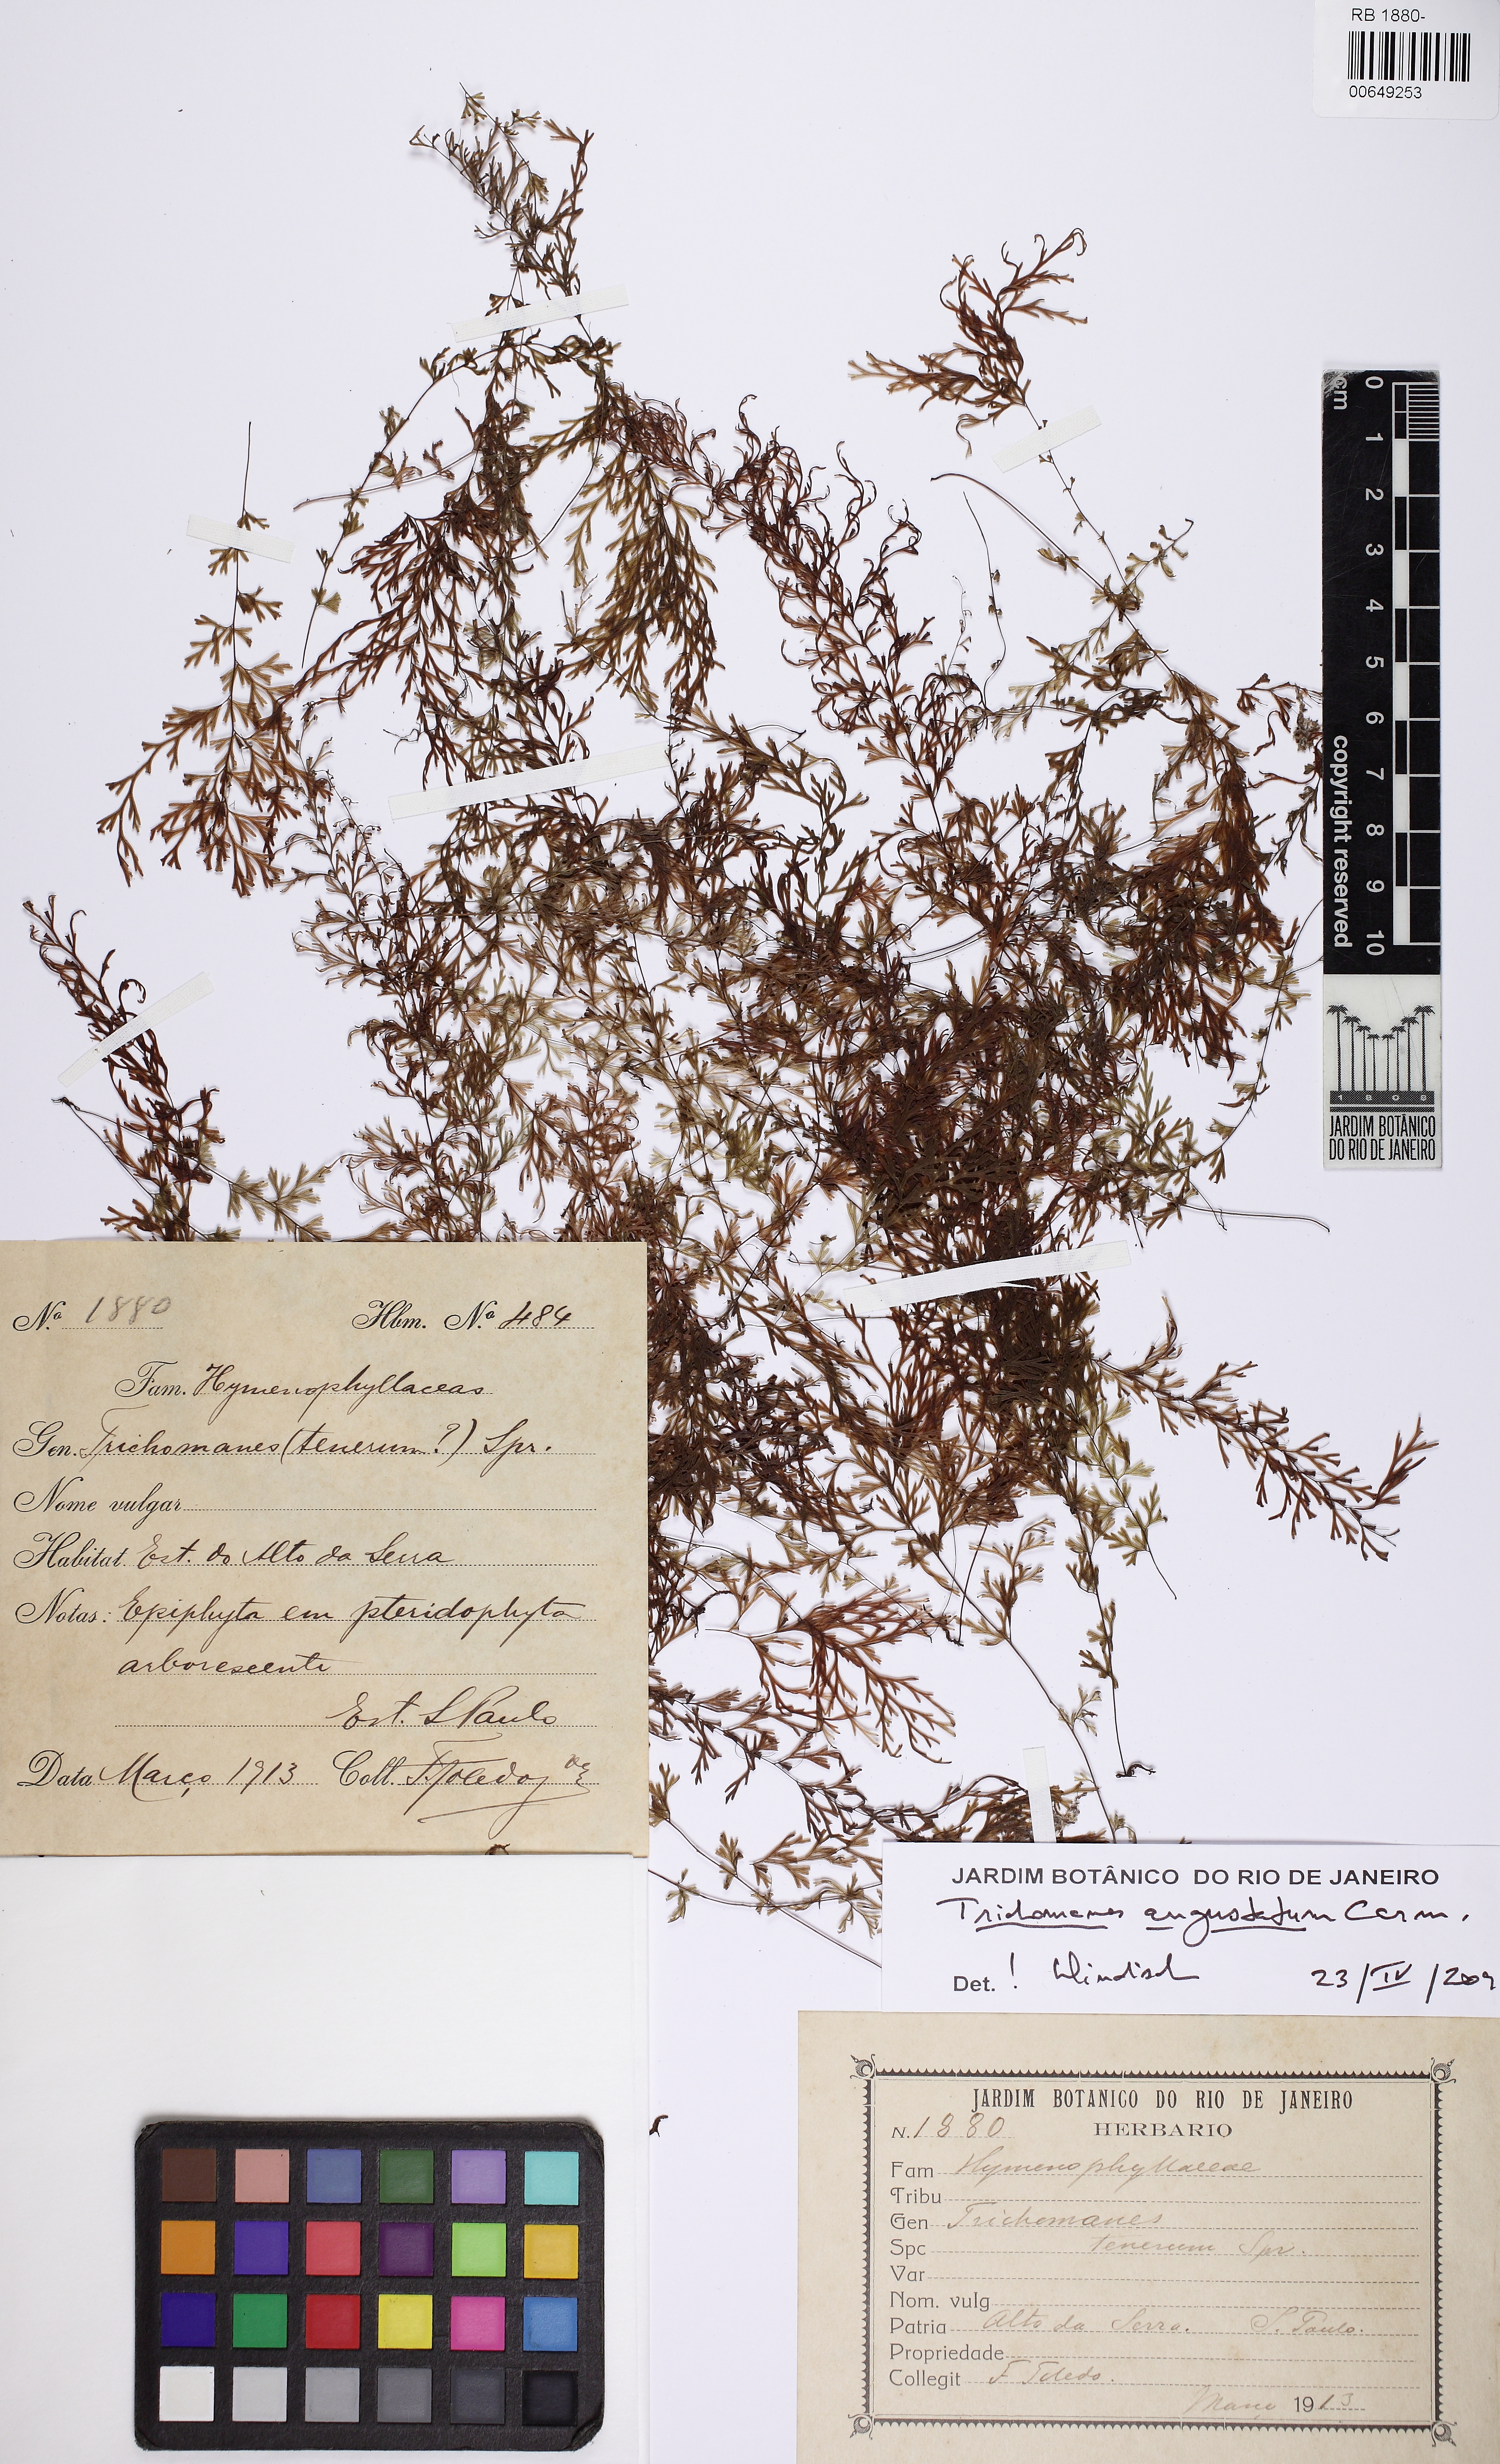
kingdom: Plantae
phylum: Tracheophyta
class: Polypodiopsida
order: Hymenophyllales
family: Hymenophyllaceae
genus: Polyphlebium
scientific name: Polyphlebium angustatum
